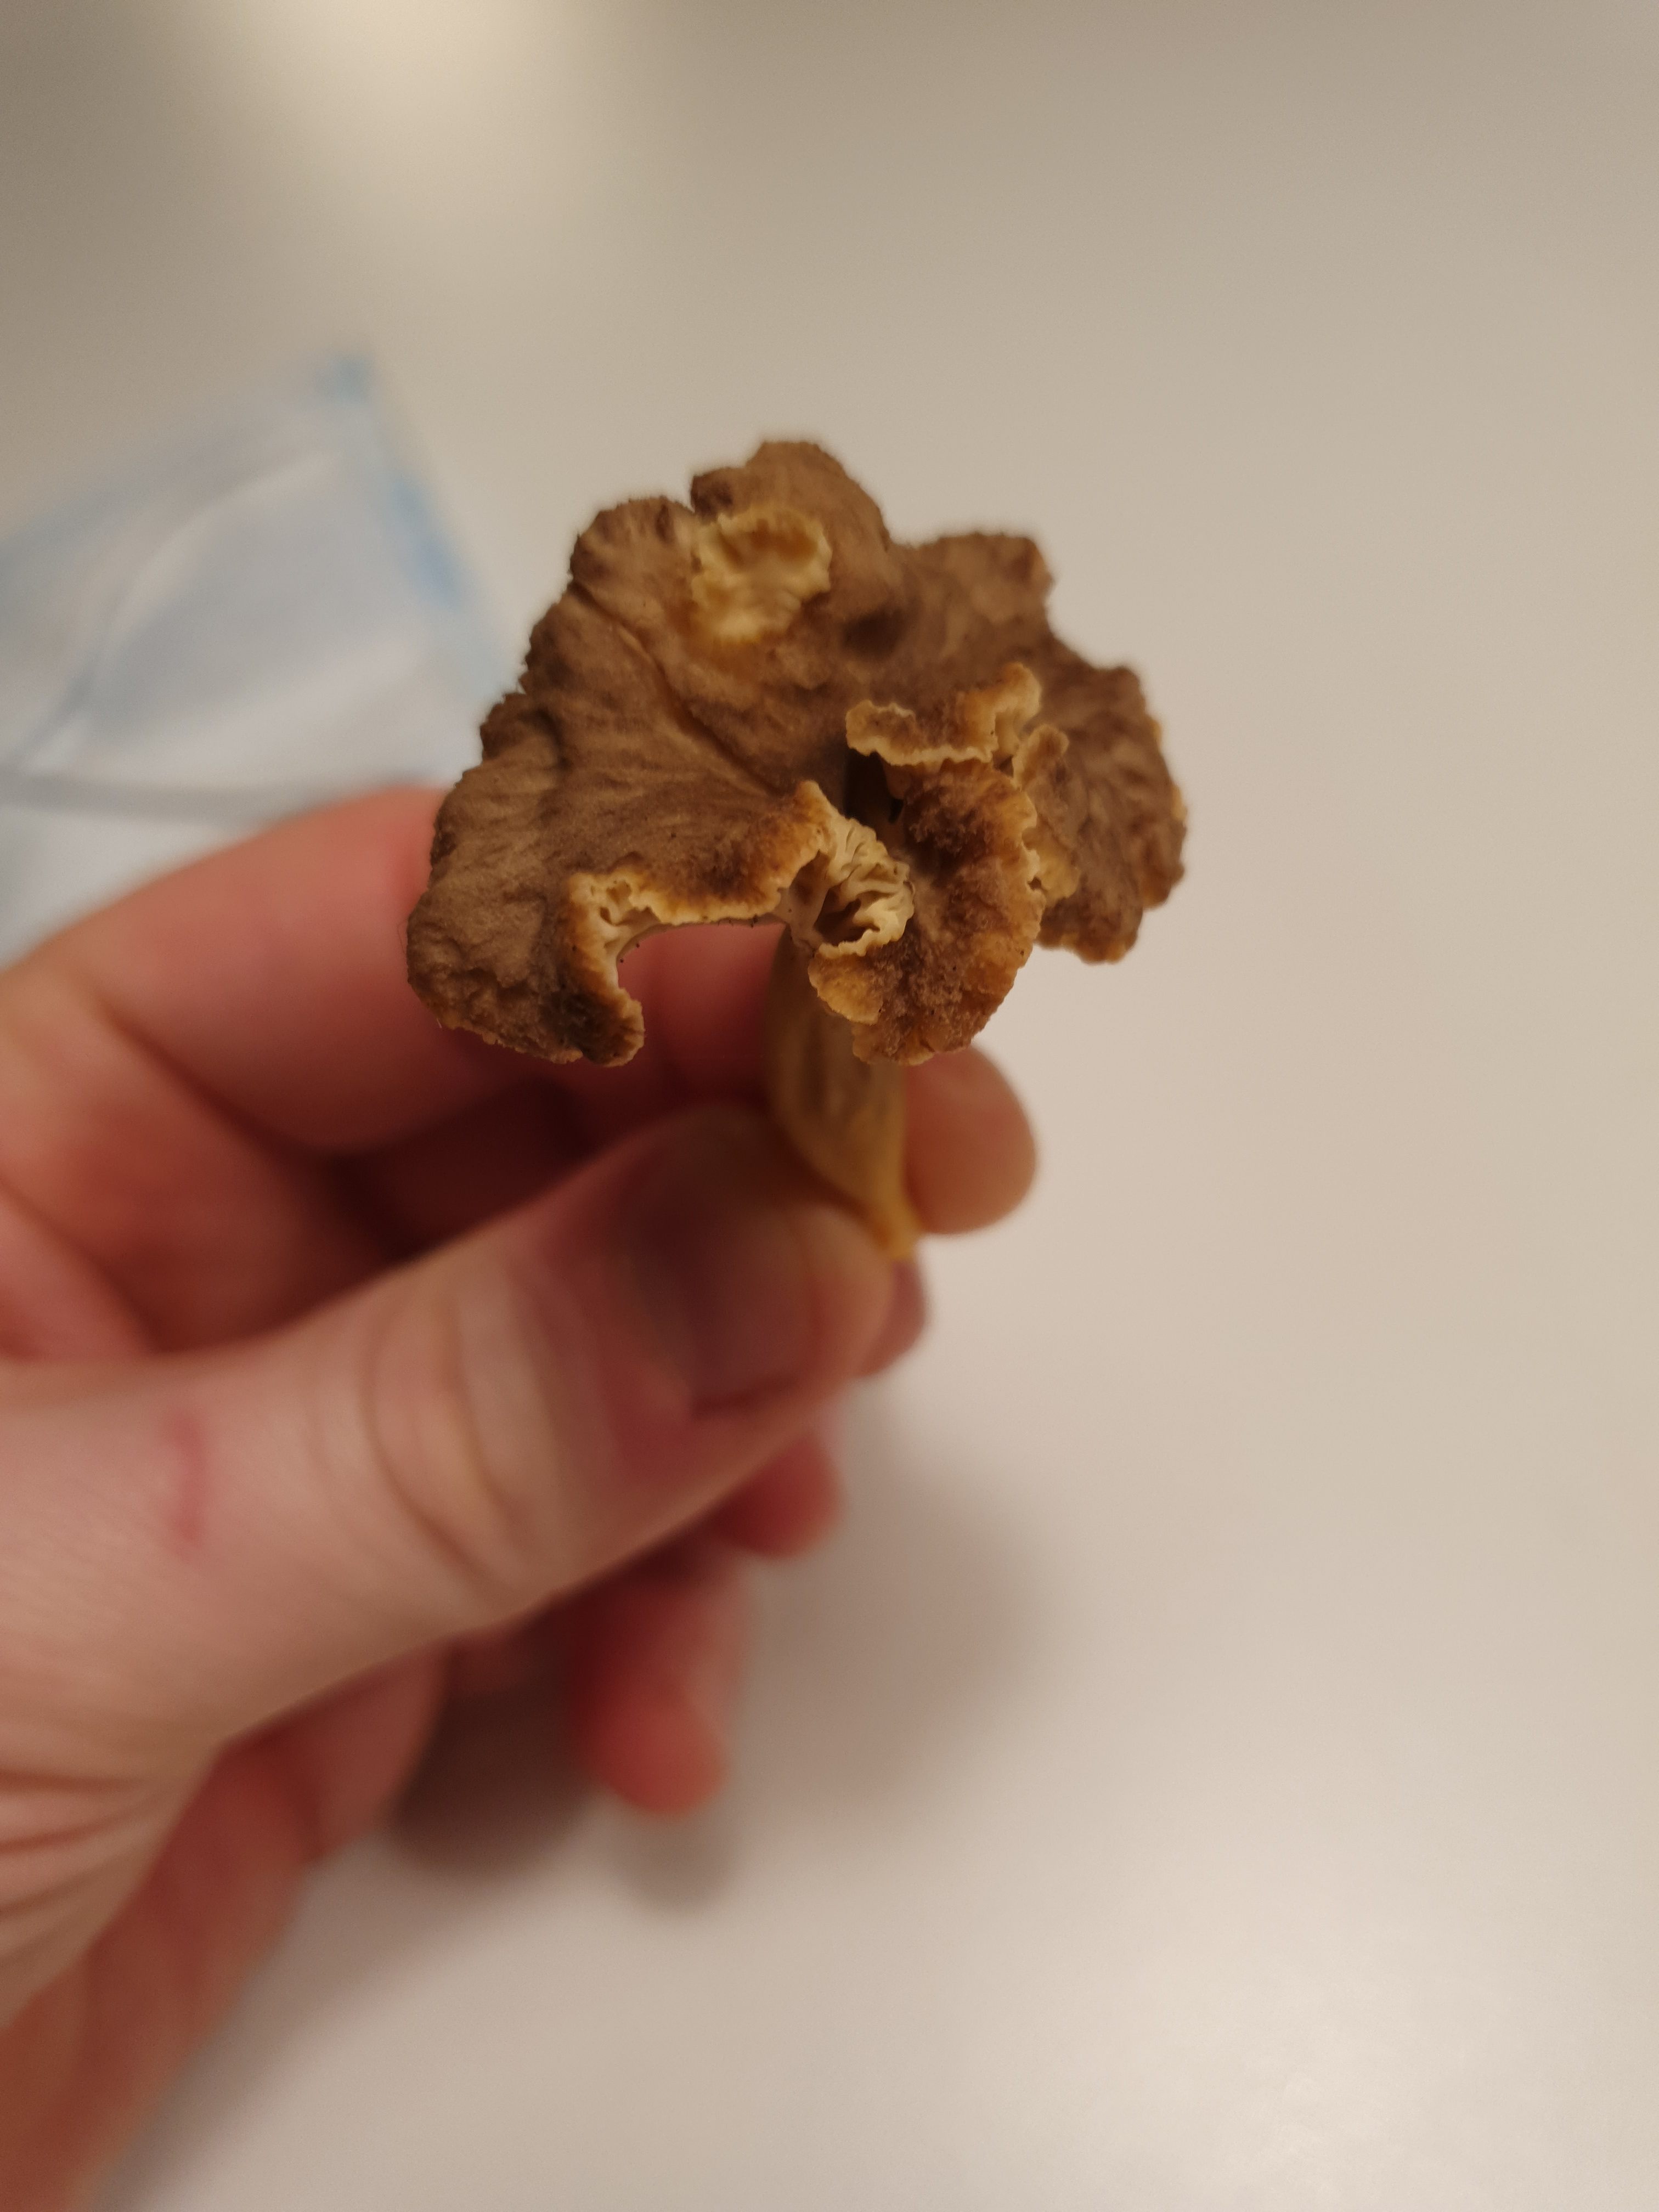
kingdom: Fungi
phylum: Basidiomycota
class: Agaricomycetes
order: Cantharellales
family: Hydnaceae
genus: Craterellus
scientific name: Craterellus tubaeformis
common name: tragt-kantarel
